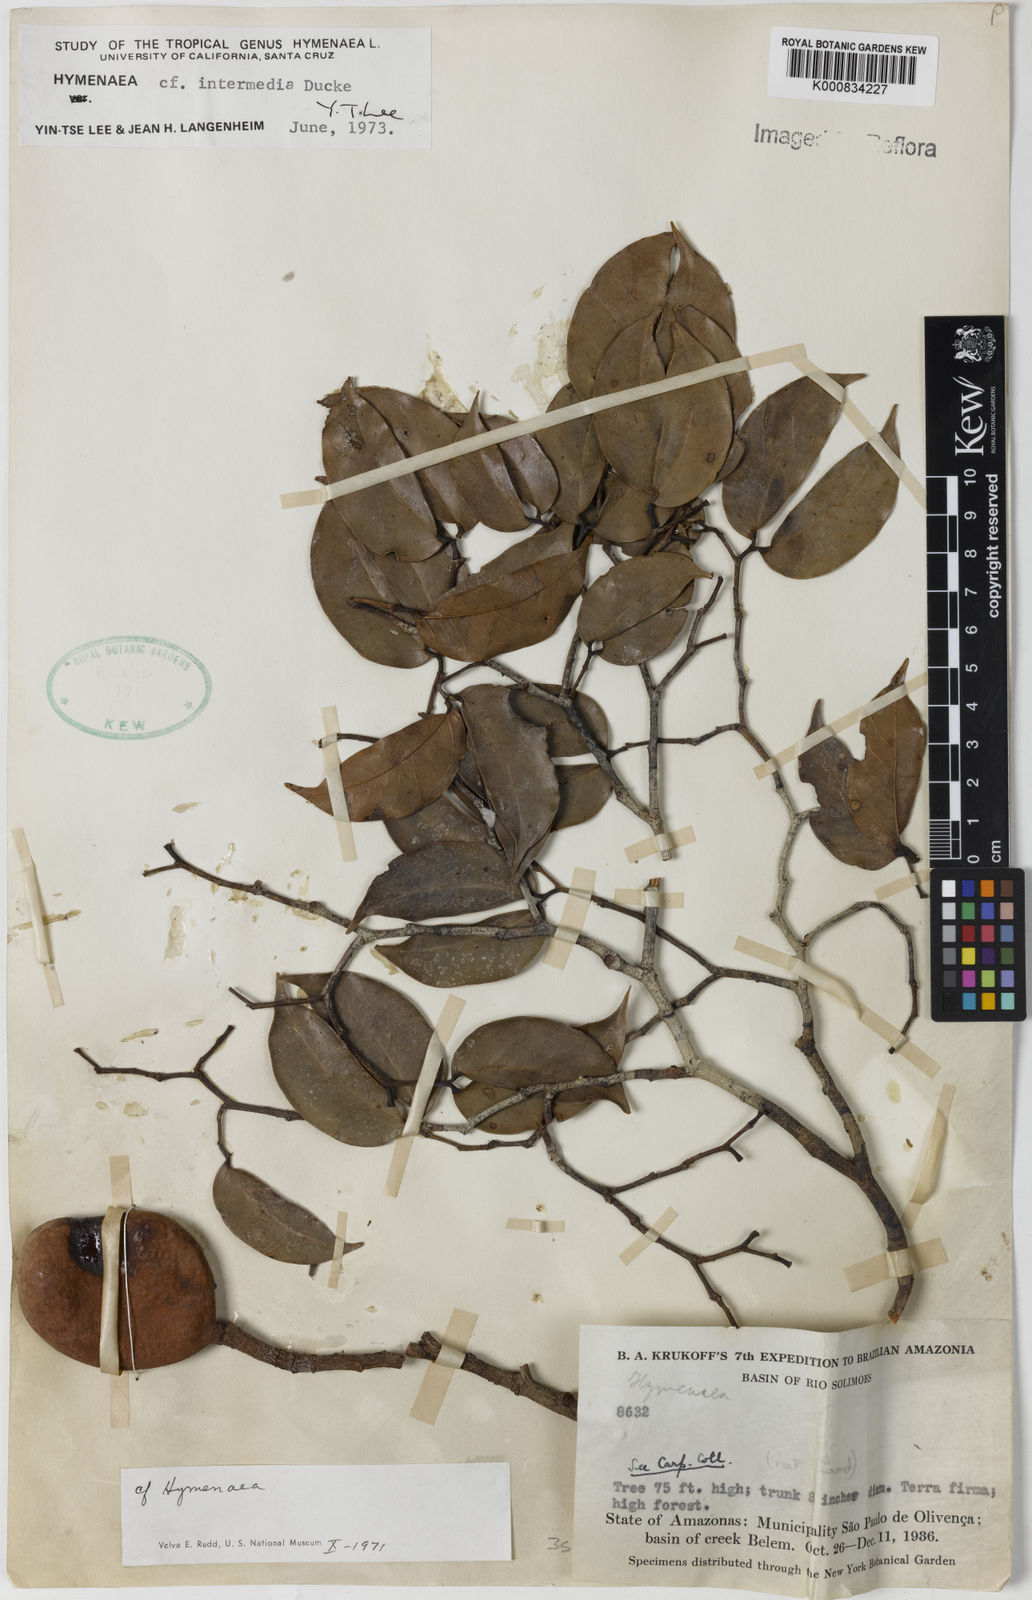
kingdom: Plantae
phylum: Tracheophyta
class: Magnoliopsida
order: Fabales
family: Fabaceae
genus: Hymenaea
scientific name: Hymenaea intermedia
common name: South american copal
